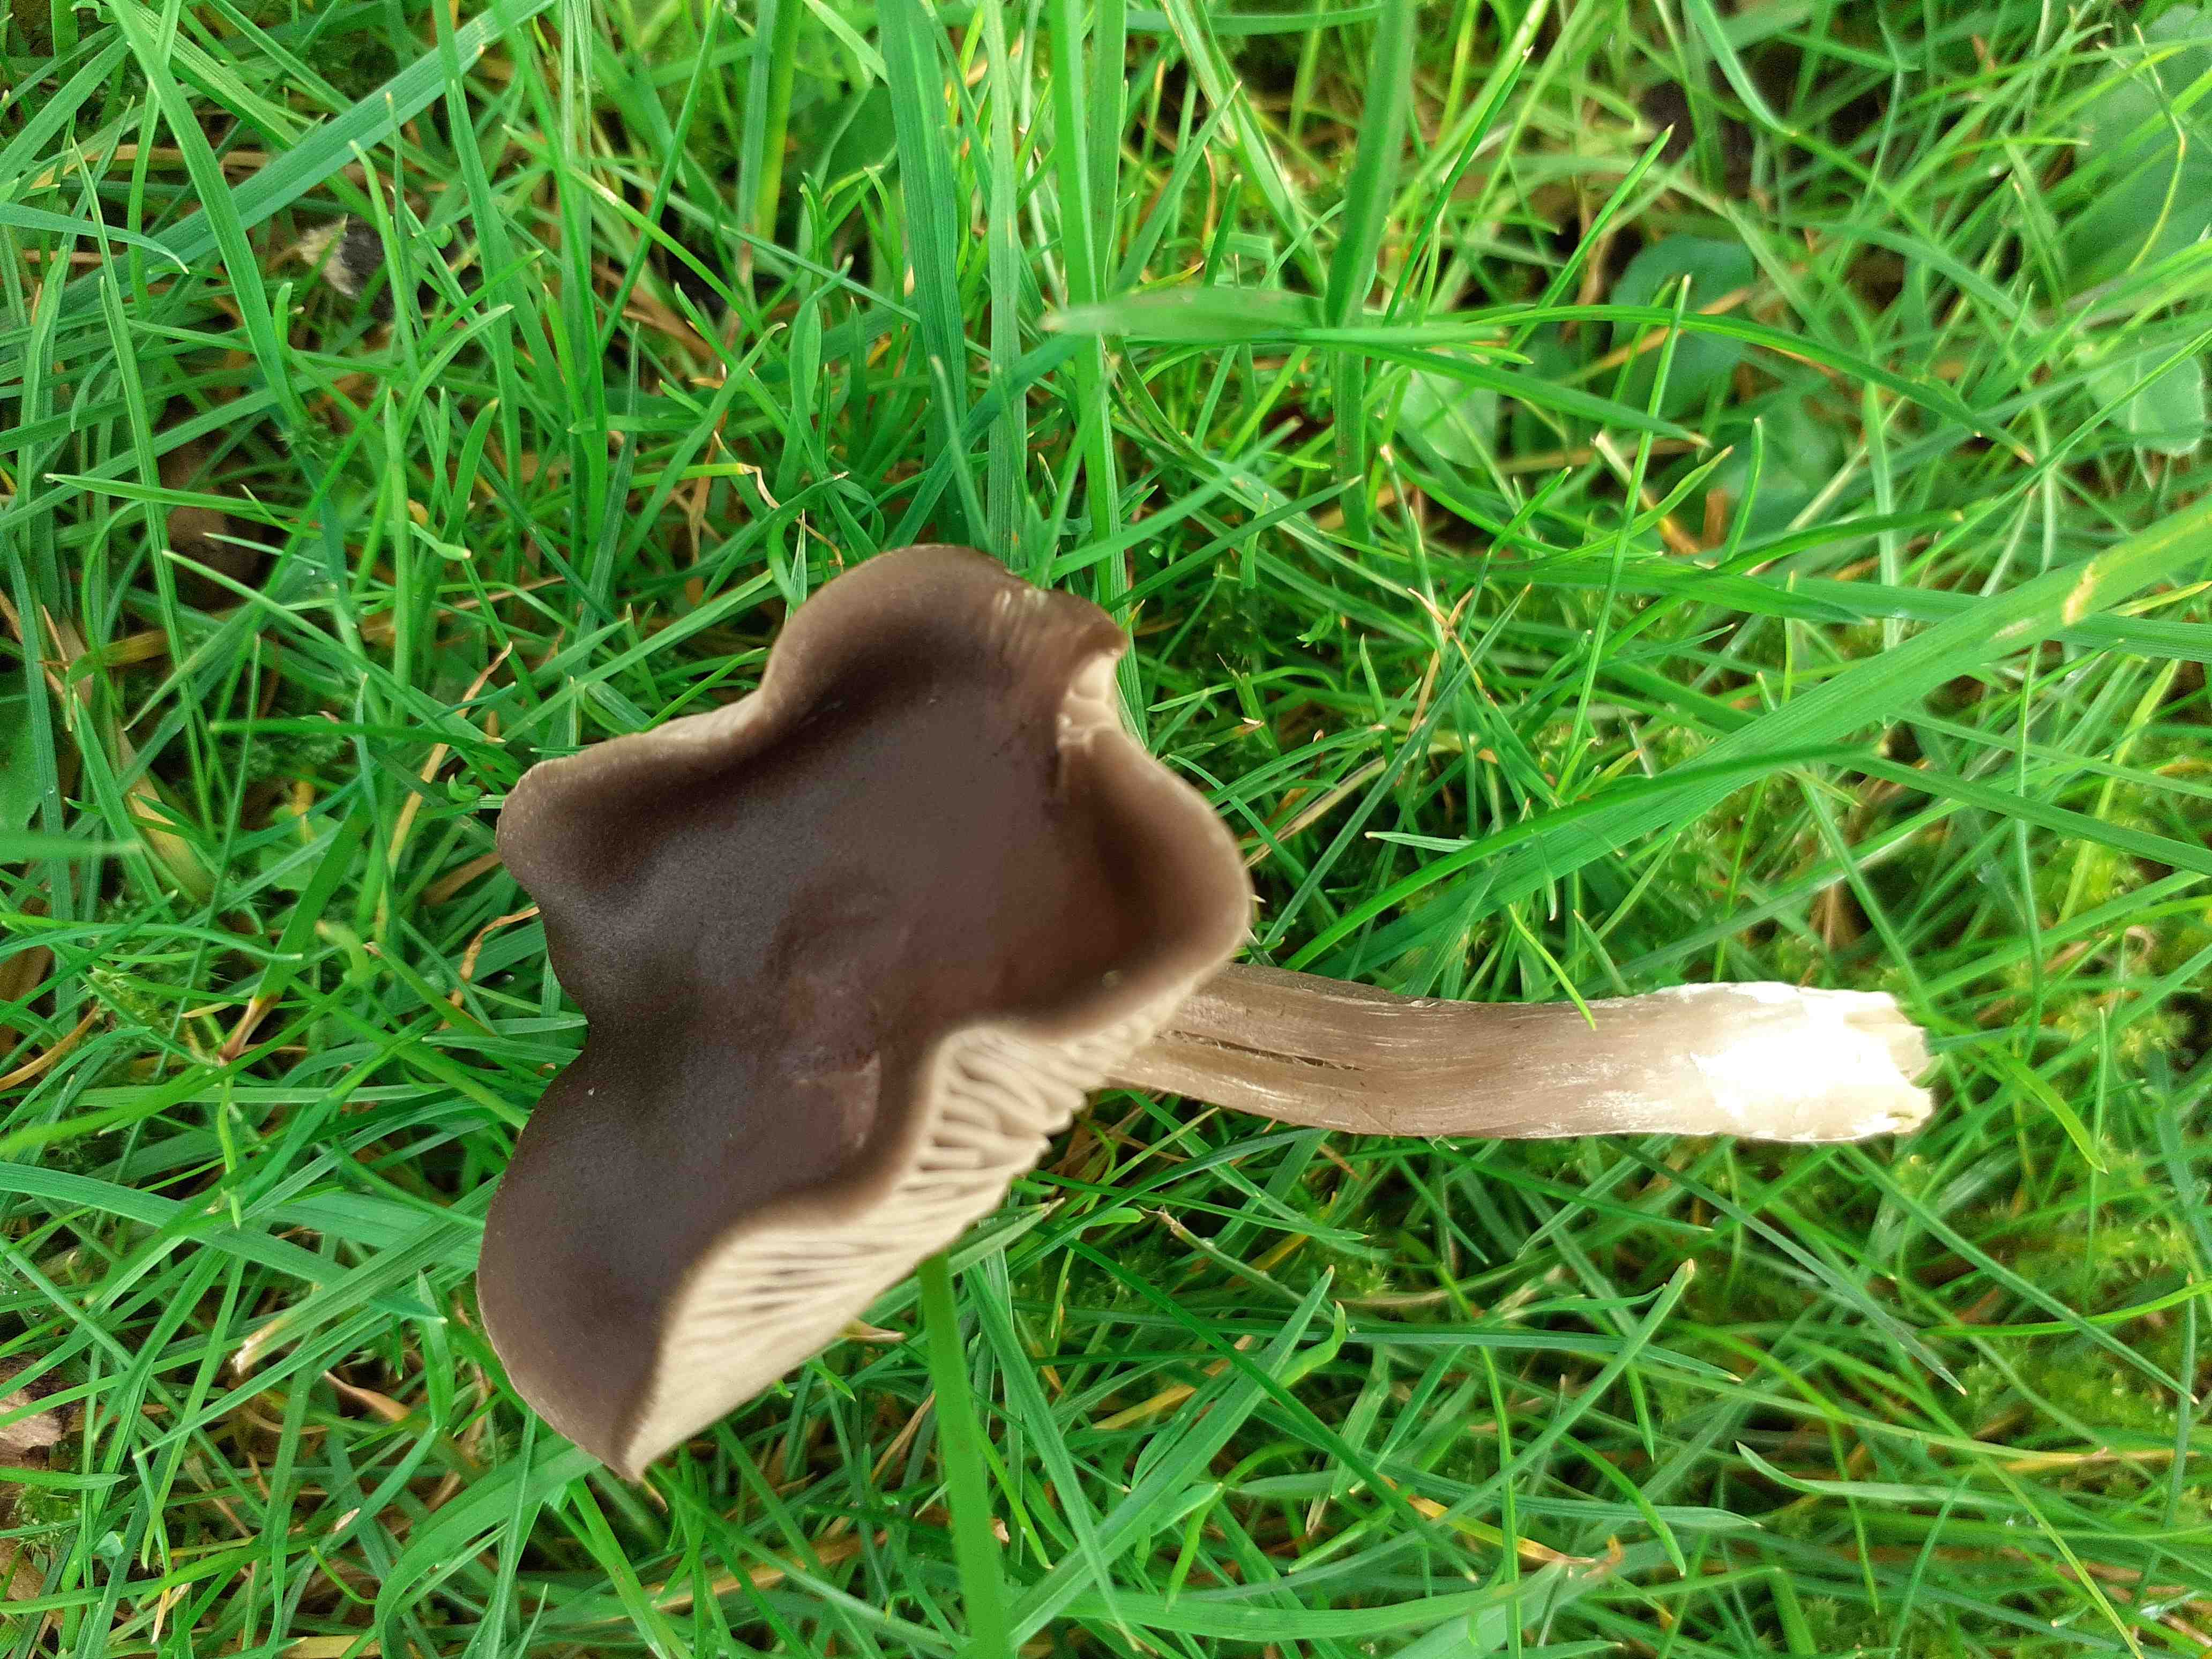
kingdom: Fungi
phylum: Basidiomycota
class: Agaricomycetes
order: Agaricales
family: Entolomataceae
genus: Entoloma
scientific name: Entoloma sericeum
